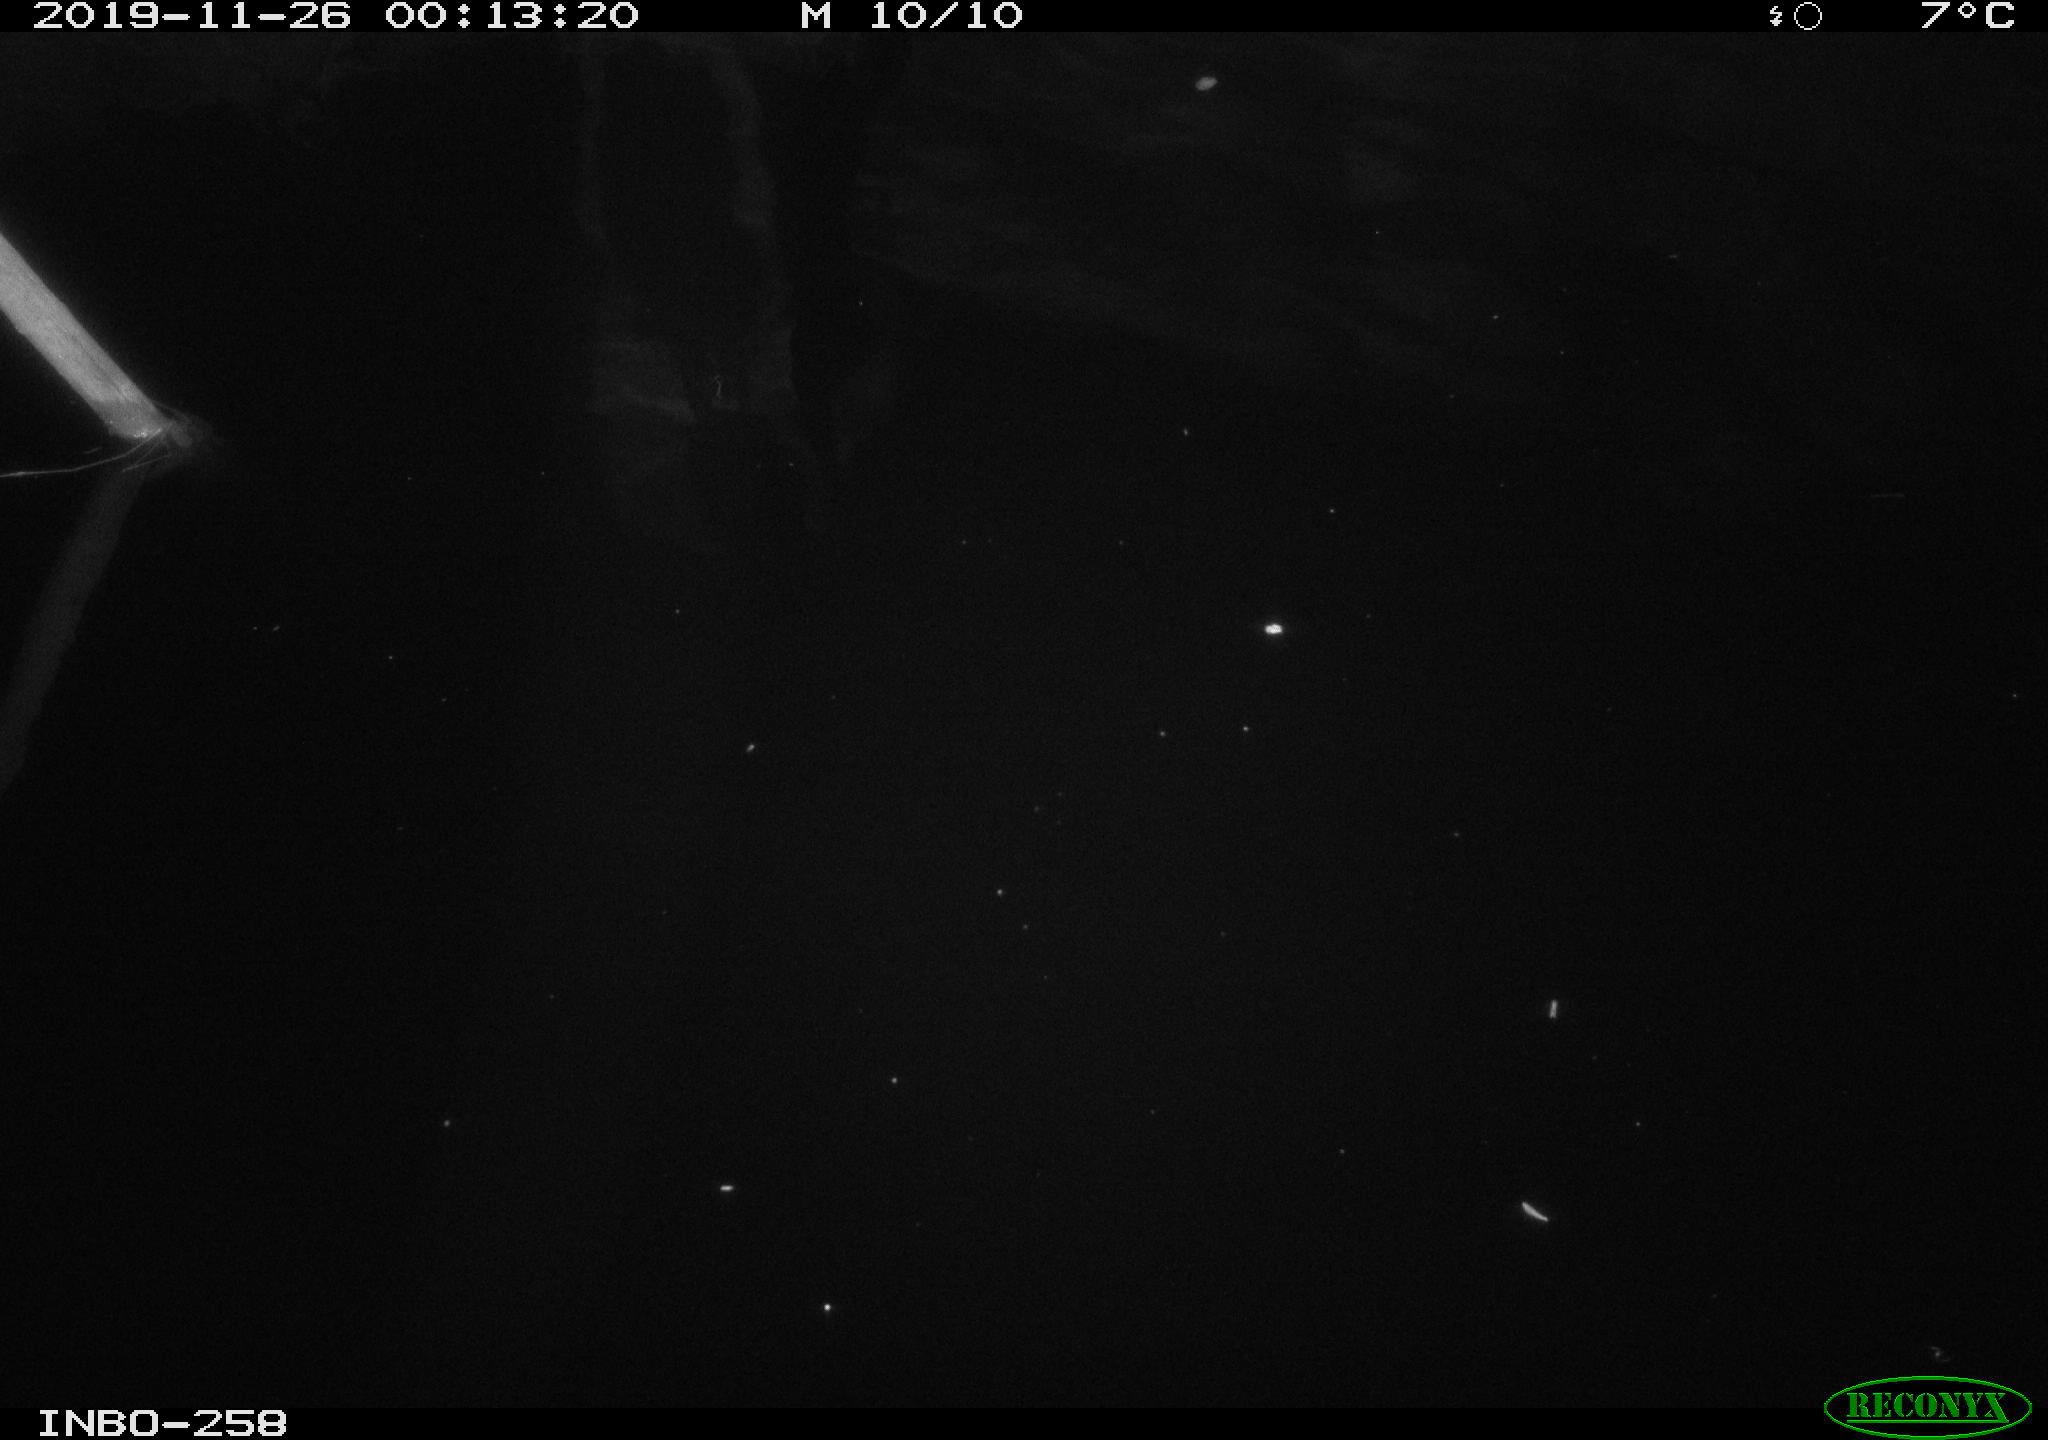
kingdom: Animalia
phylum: Chordata
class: Aves
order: Anseriformes
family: Anatidae
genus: Anas
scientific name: Anas platyrhynchos
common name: Mallard
